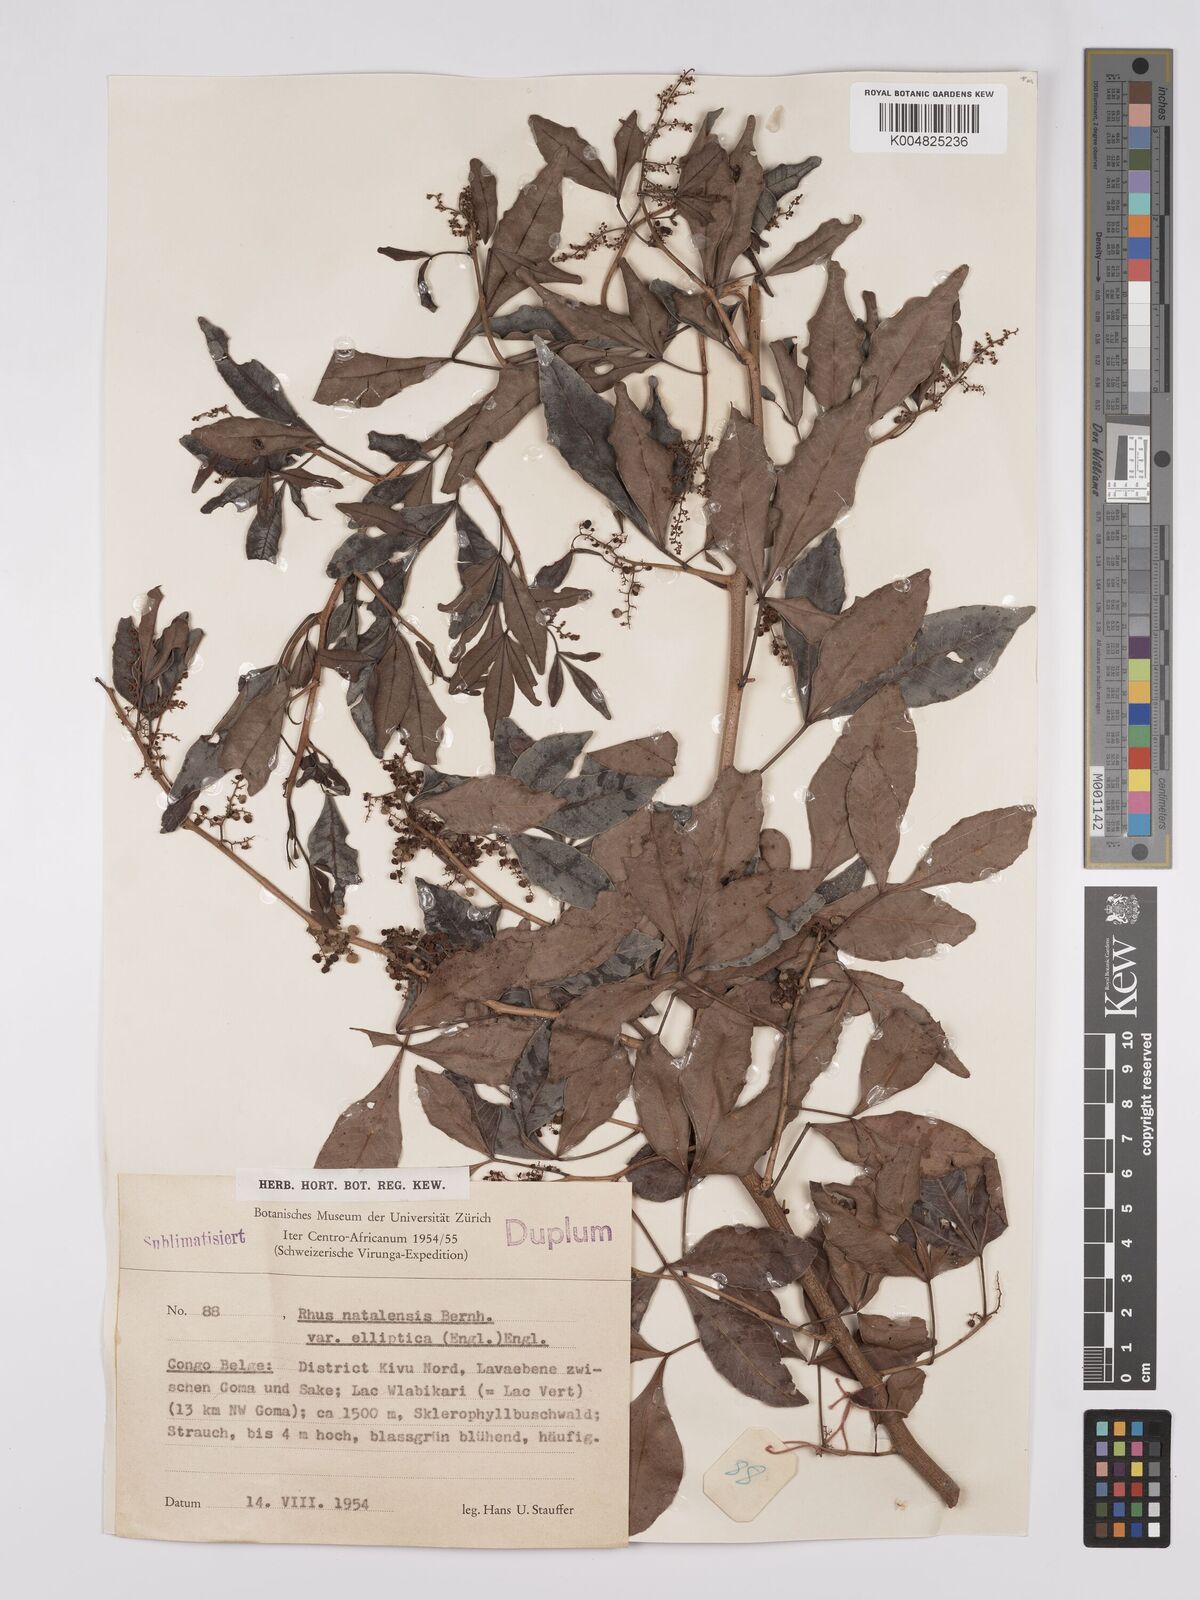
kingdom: Plantae
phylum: Tracheophyta
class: Magnoliopsida
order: Sapindales
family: Anacardiaceae
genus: Searsia
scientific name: Searsia natalensis
